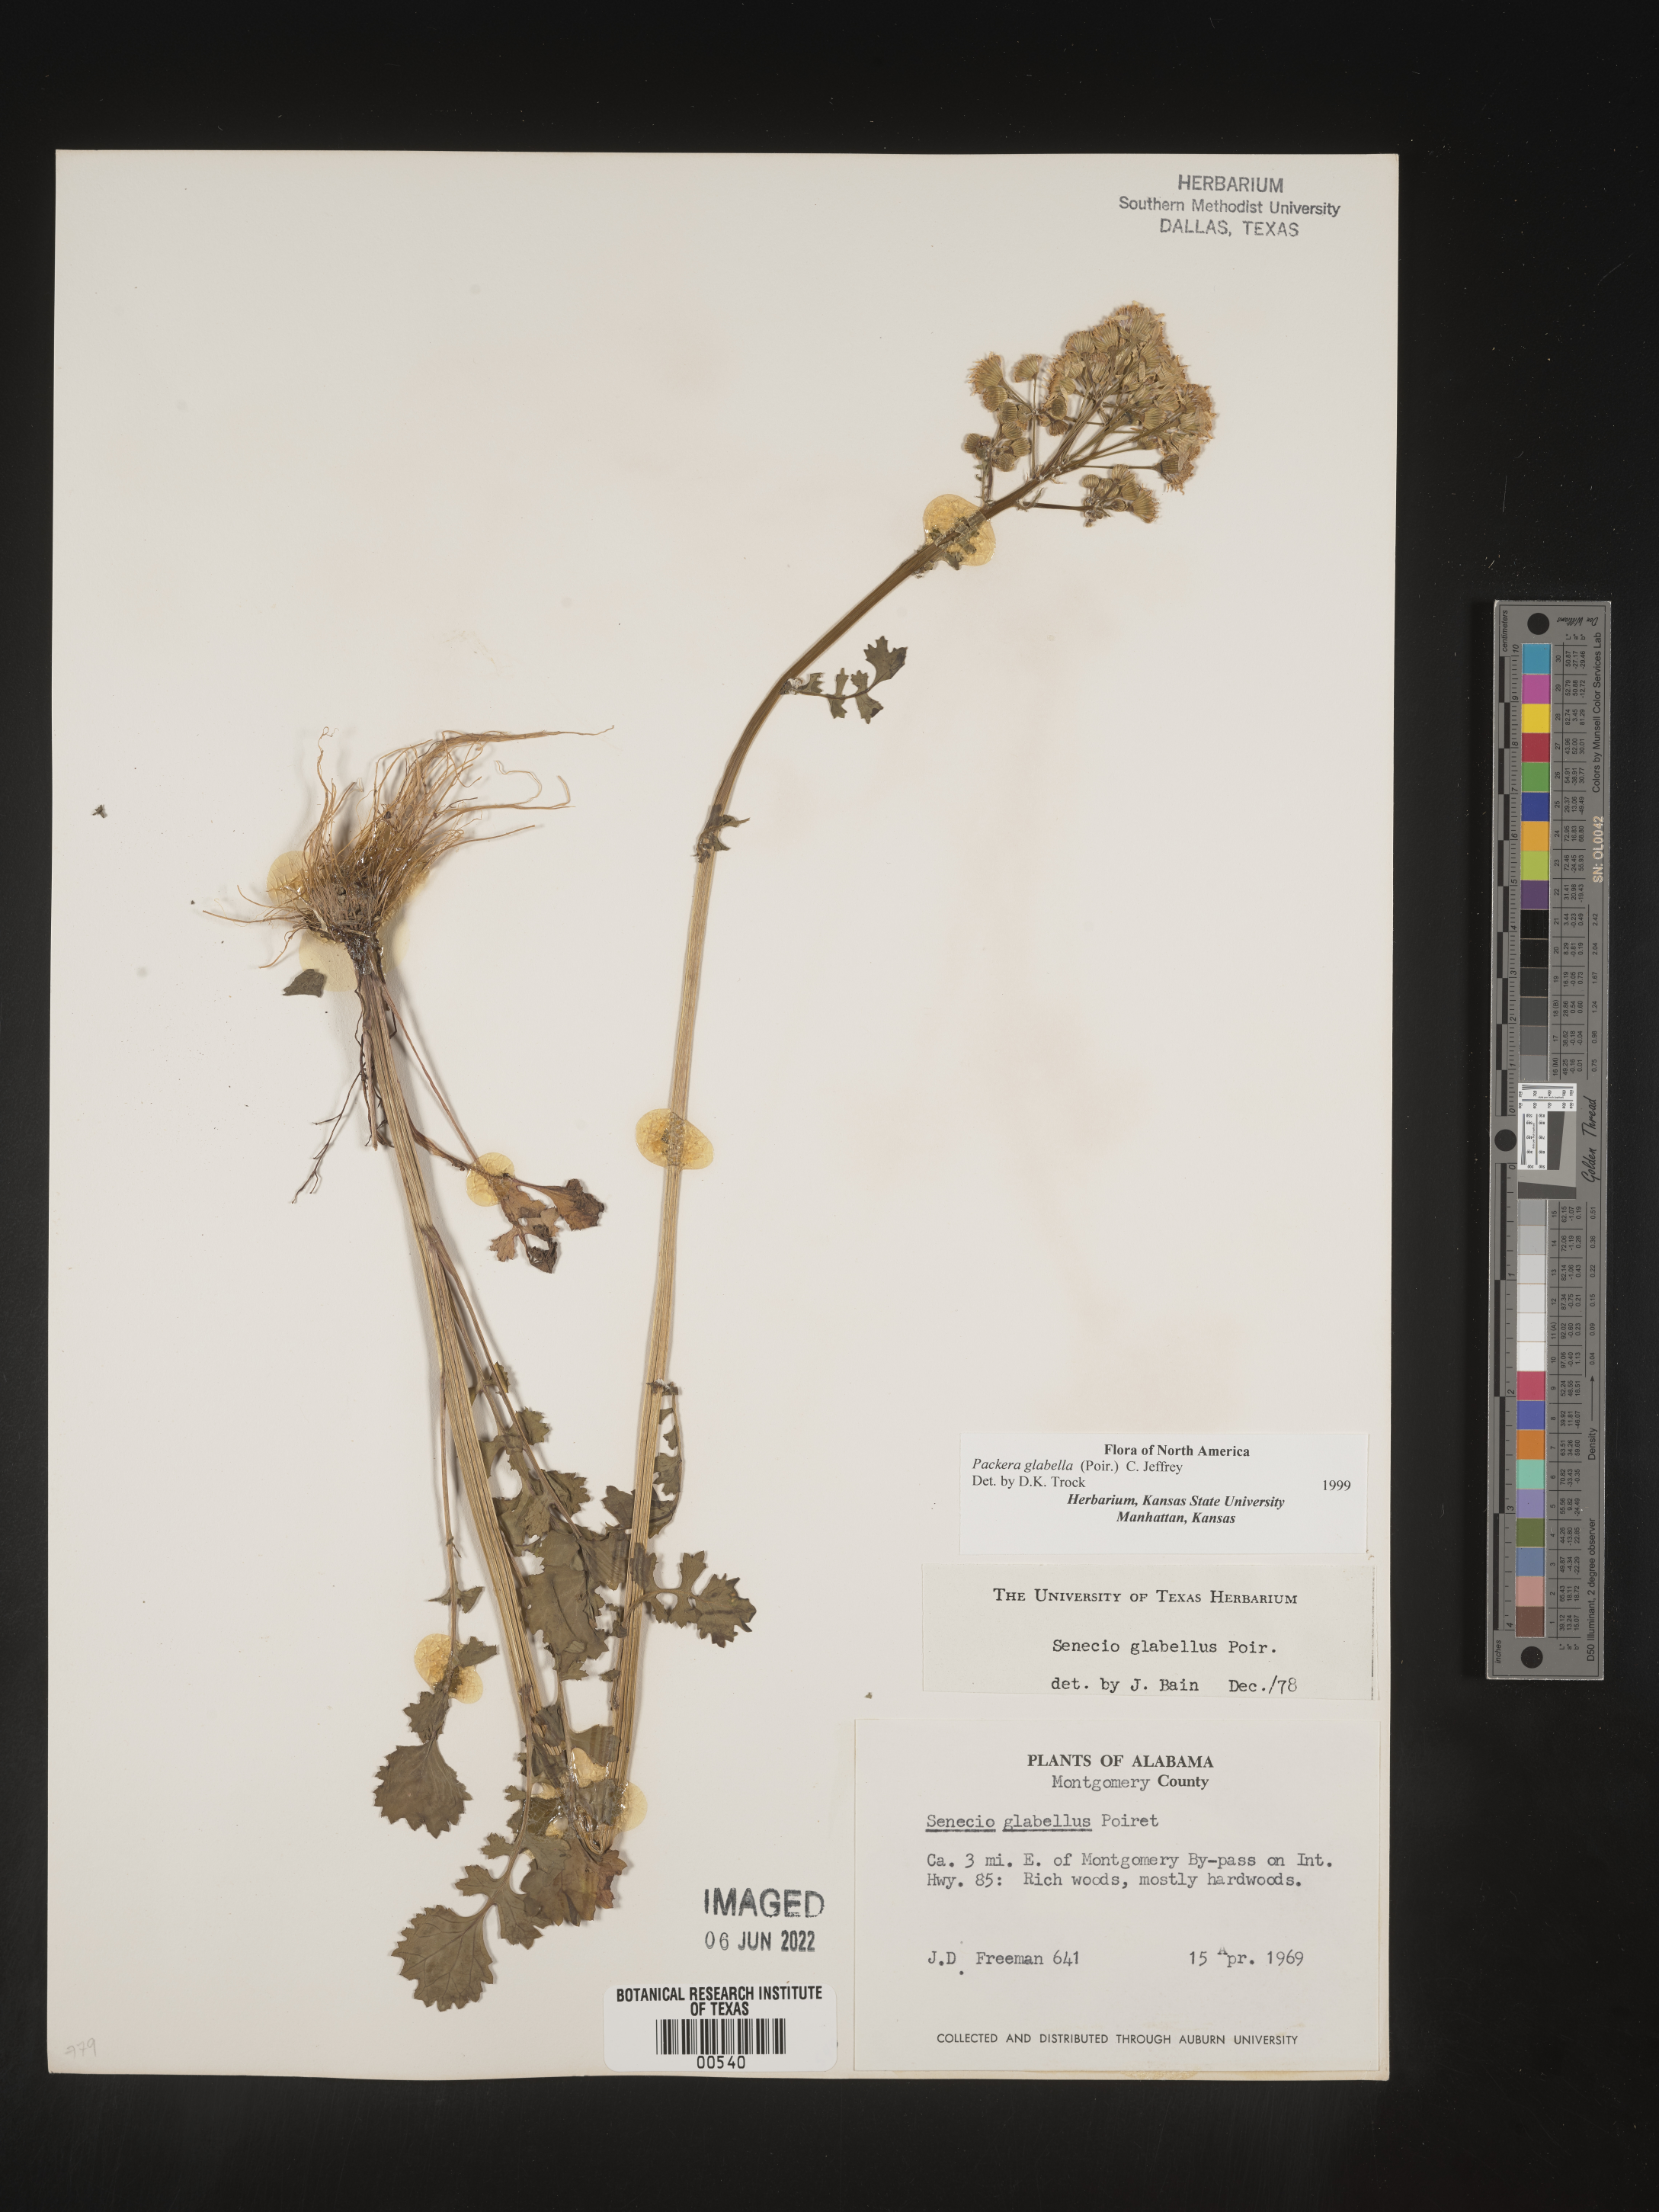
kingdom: Plantae
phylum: Tracheophyta
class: Magnoliopsida
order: Asterales
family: Asteraceae
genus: Packera
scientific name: Packera glabella
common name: Butterweed
